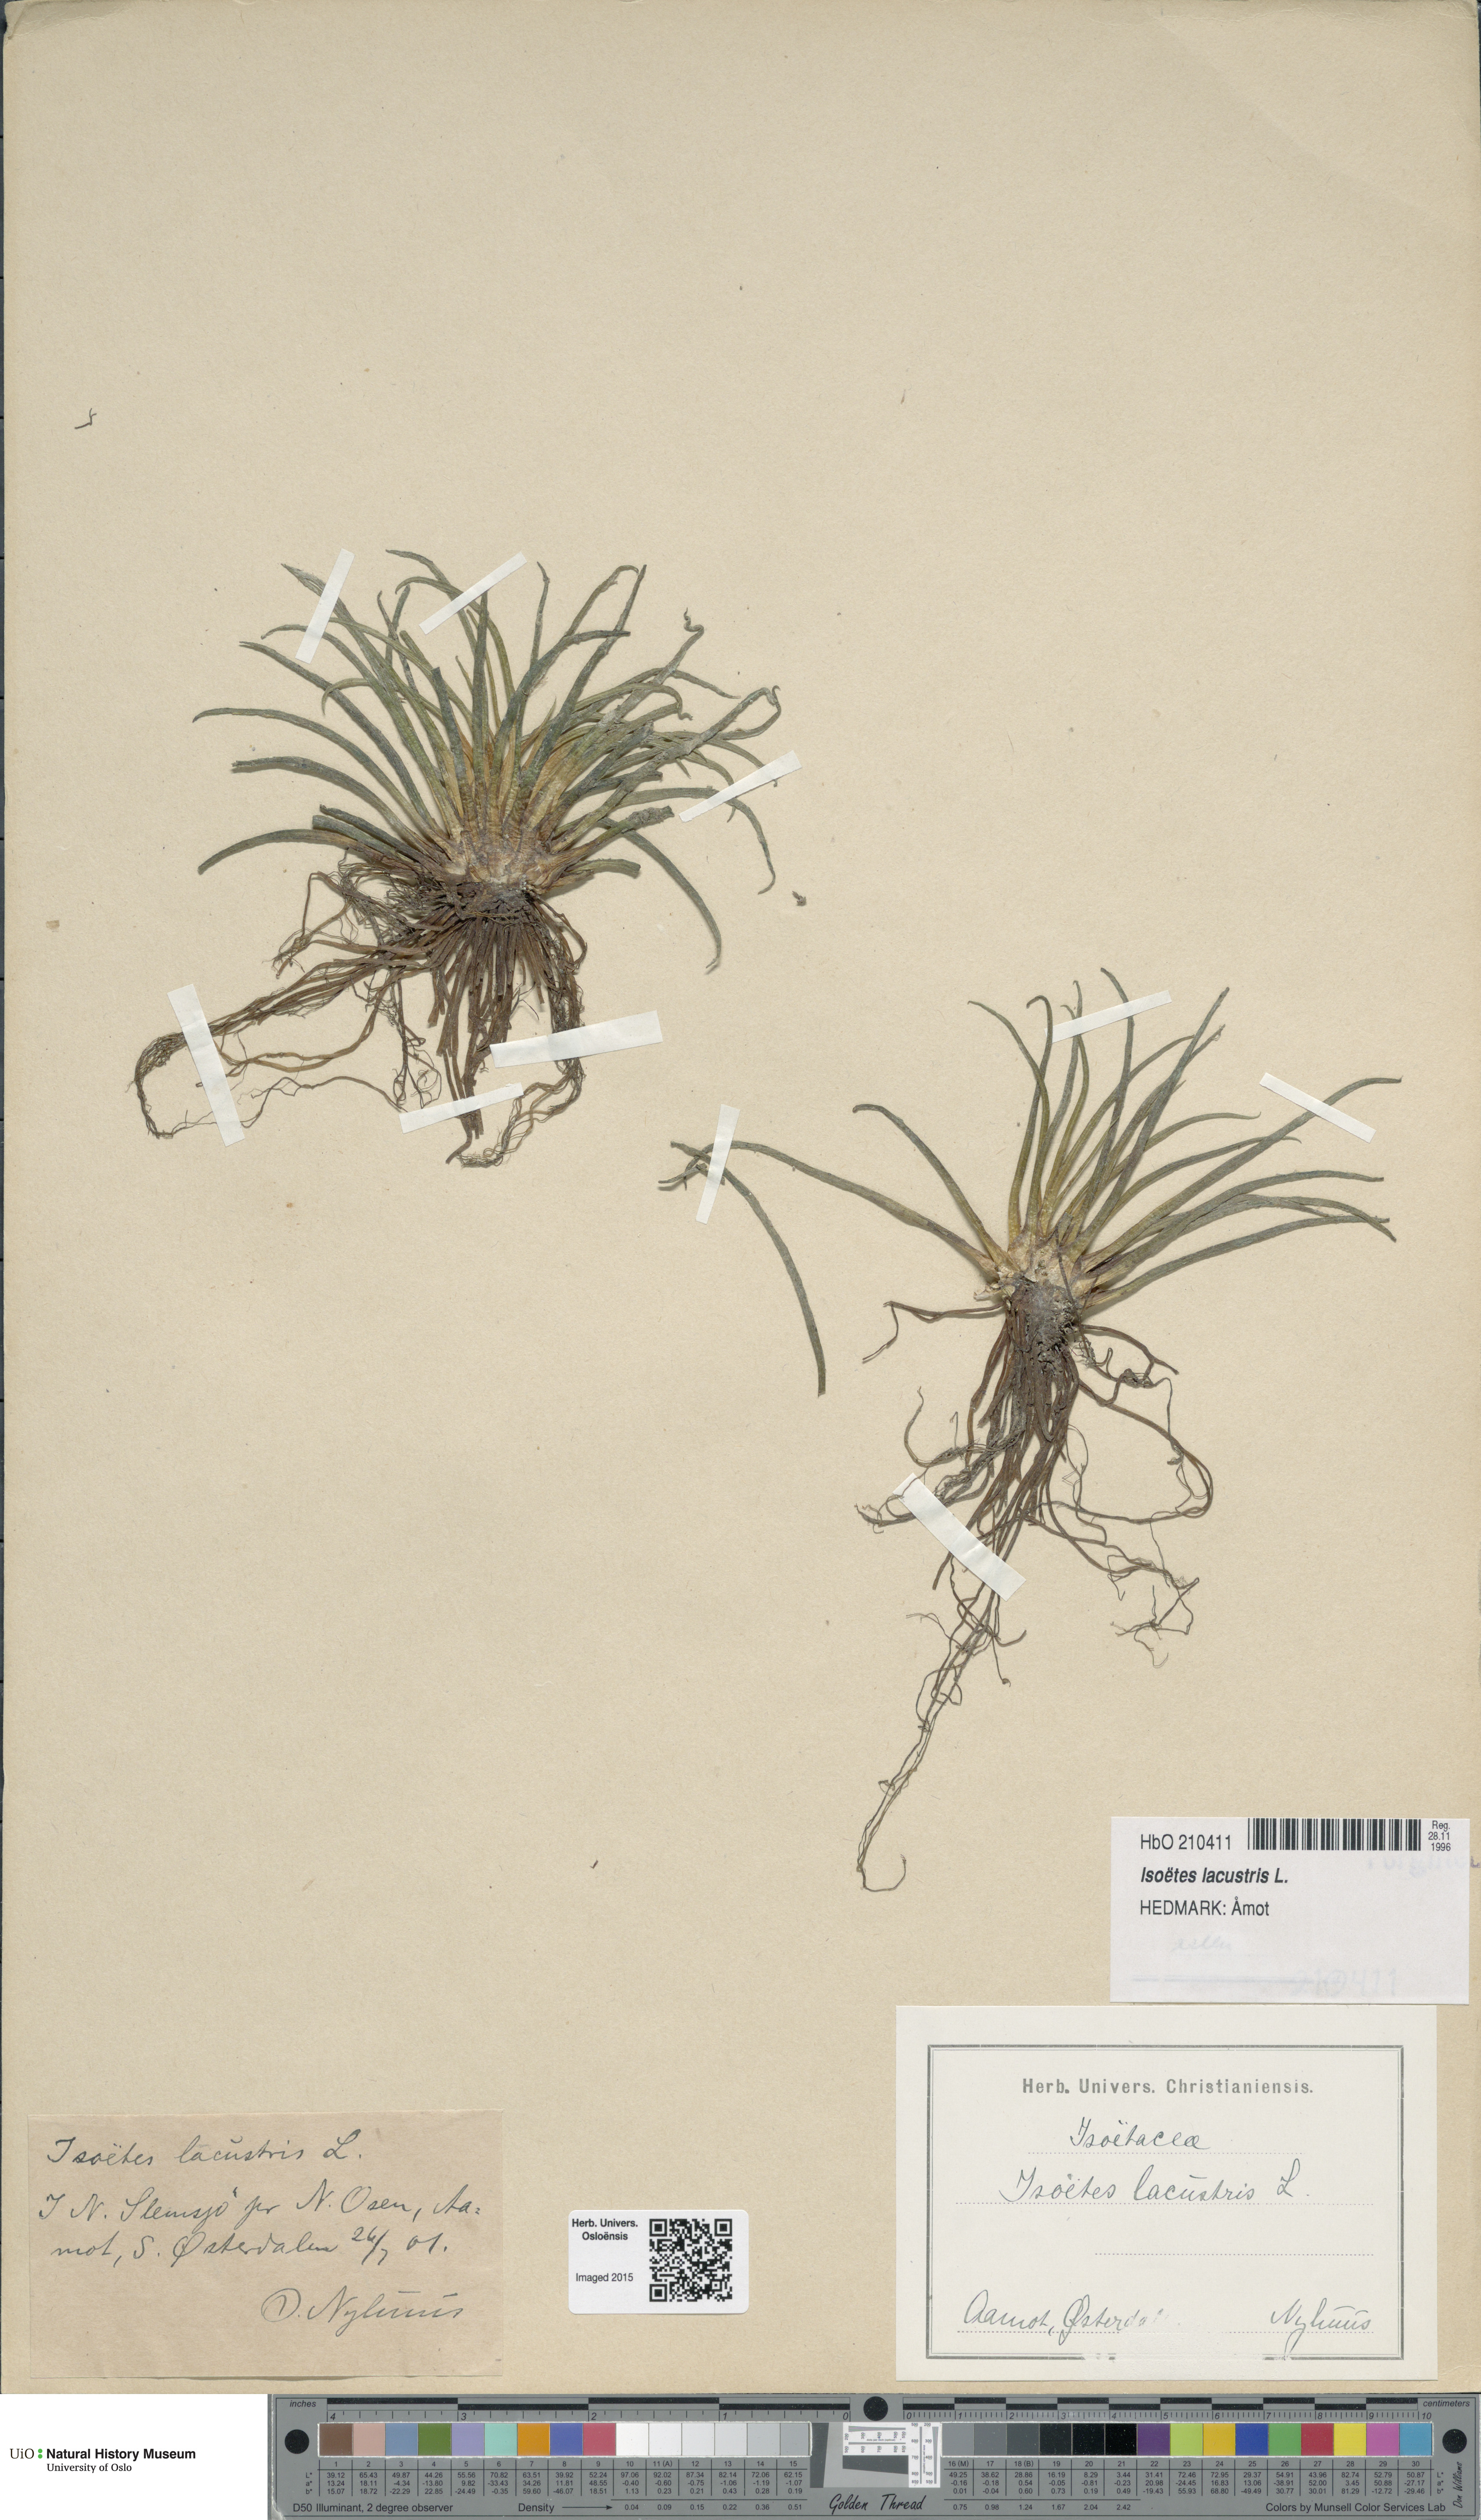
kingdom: Plantae
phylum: Tracheophyta
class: Lycopodiopsida
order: Isoetales
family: Isoetaceae
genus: Isoetes
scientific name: Isoetes lacustris
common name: Common quillwort
